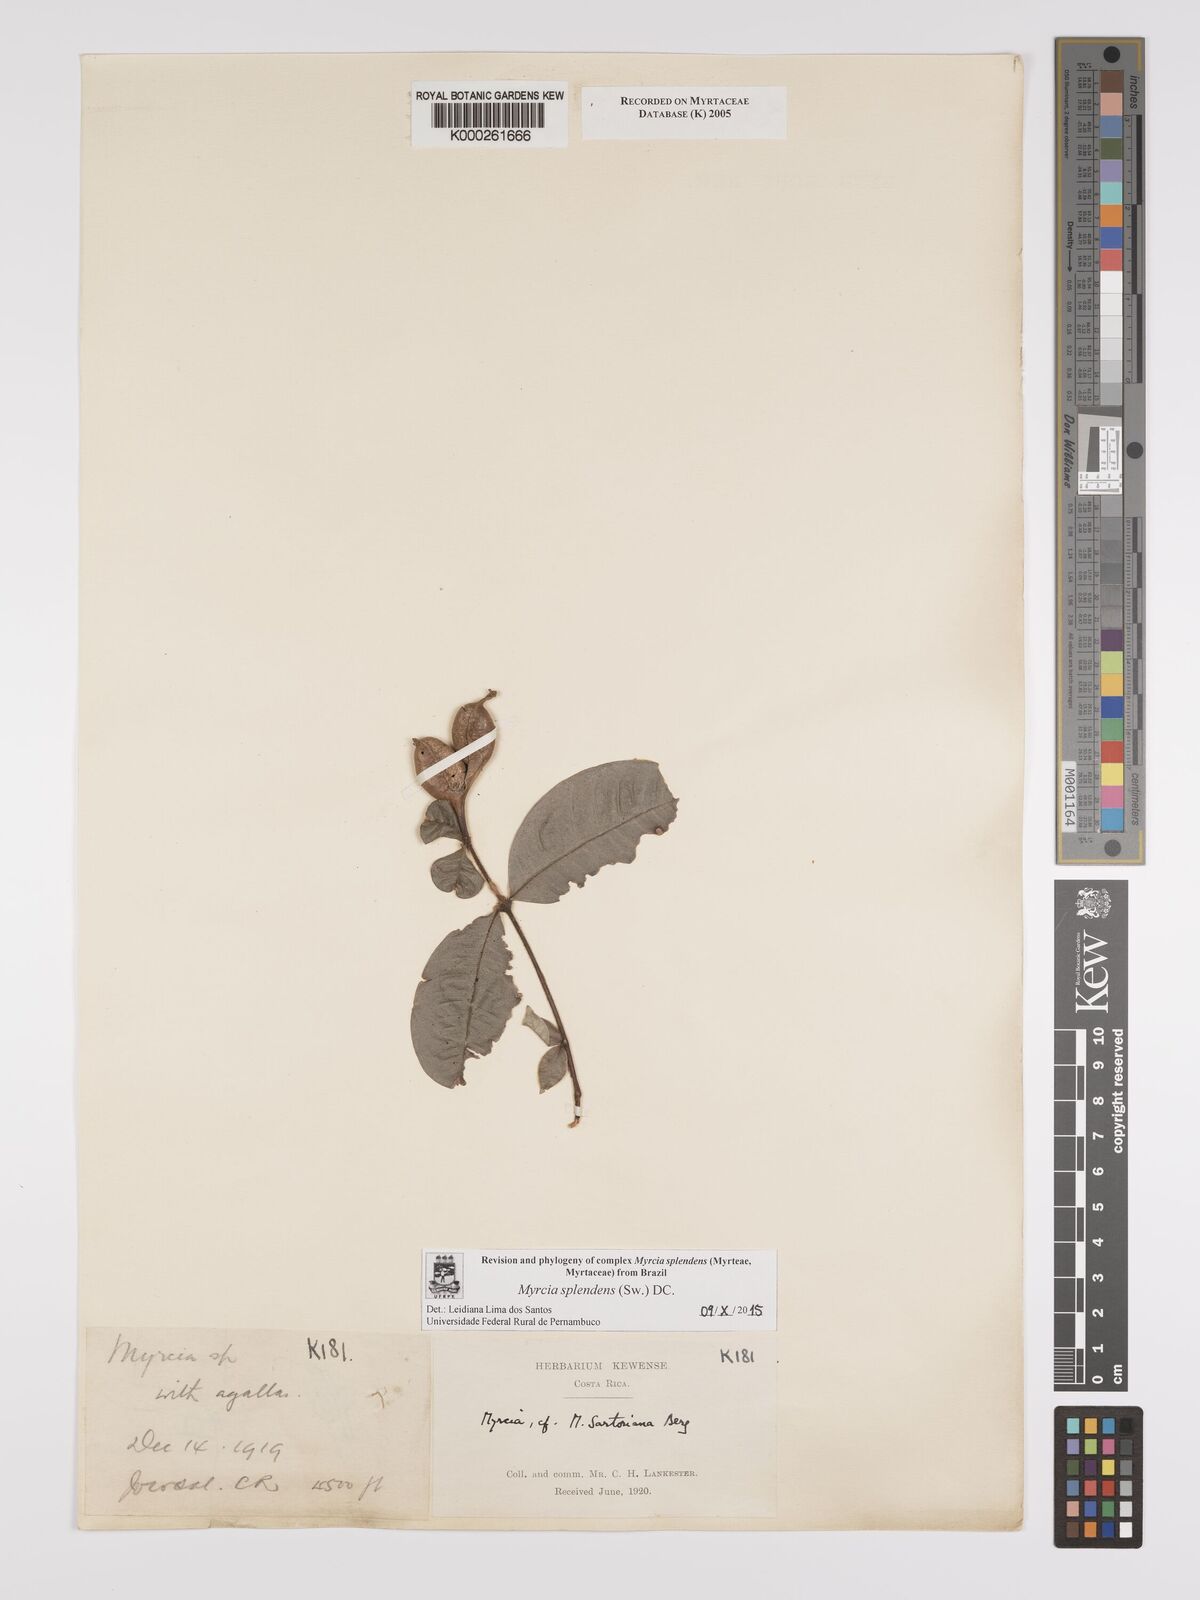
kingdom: Plantae
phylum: Tracheophyta
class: Magnoliopsida
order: Myrtales
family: Myrtaceae
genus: Myrcia
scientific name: Myrcia splendens
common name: Surinam cherry
